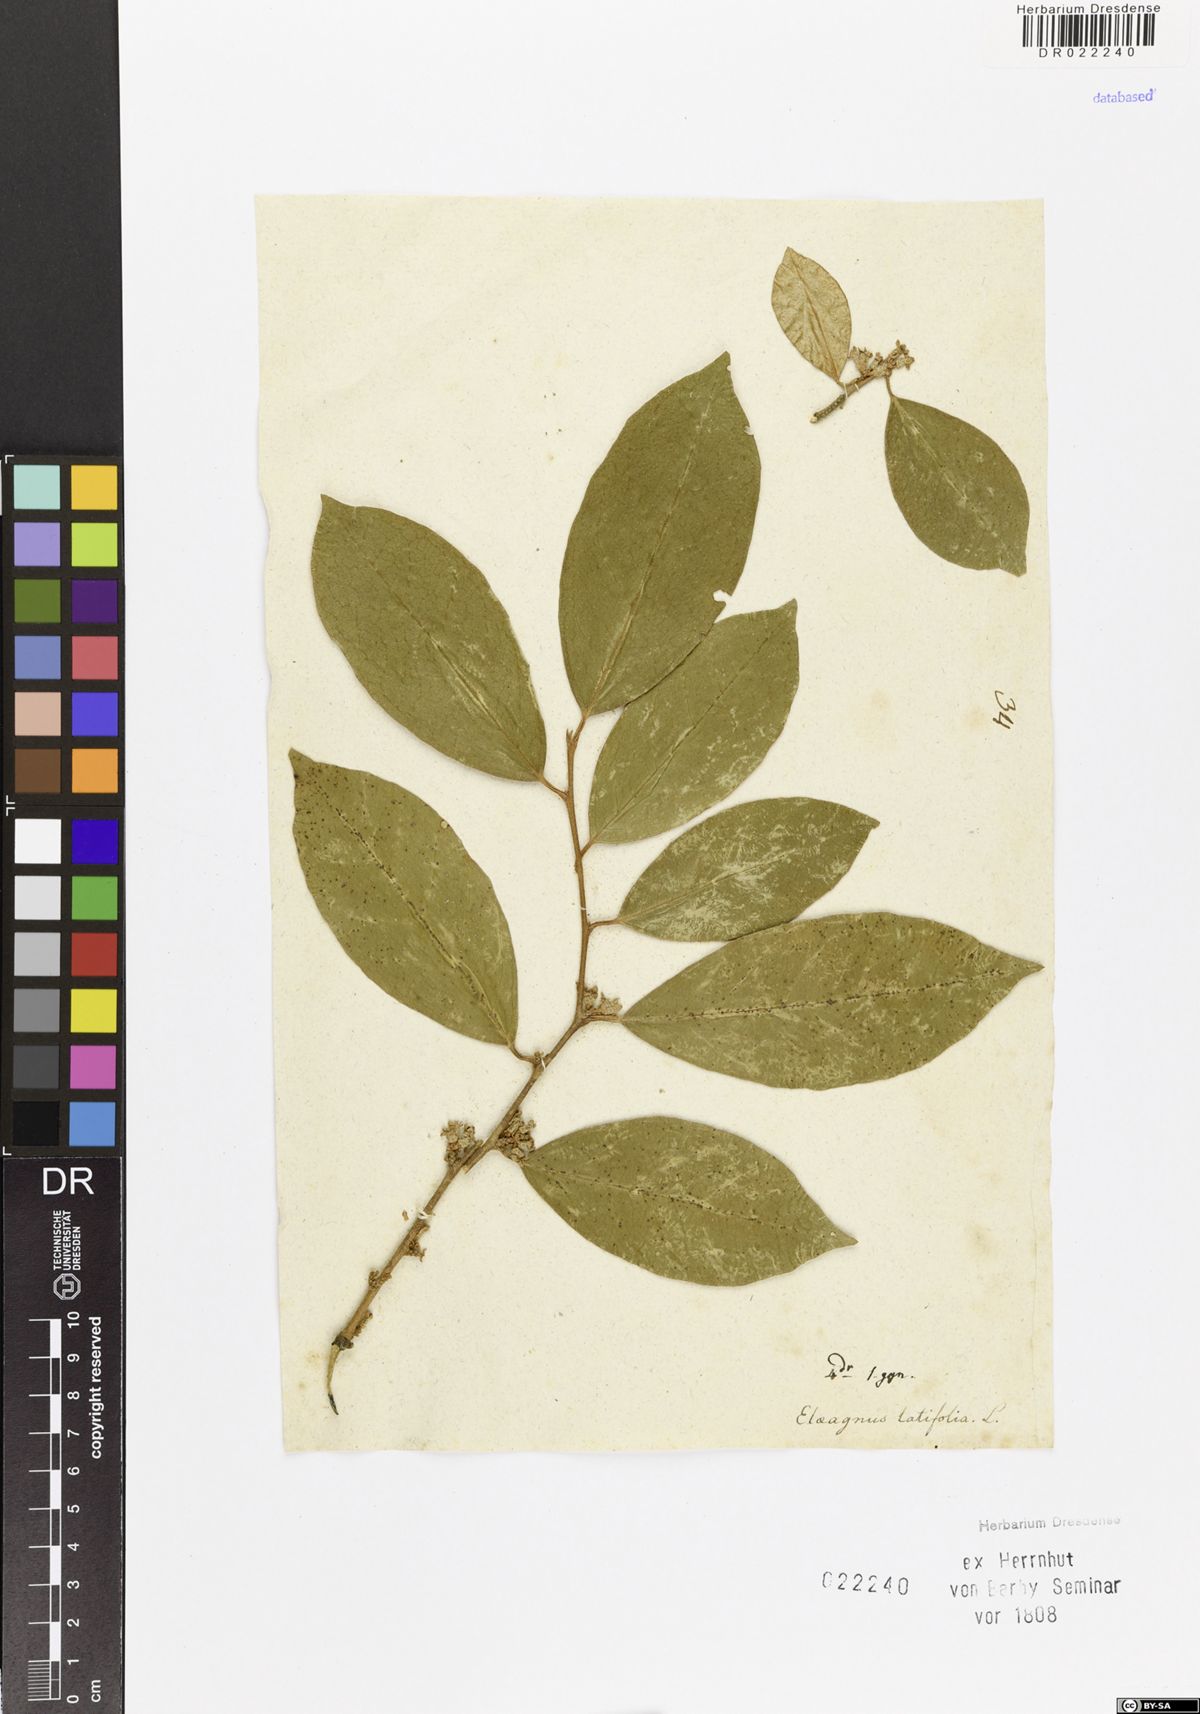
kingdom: Plantae
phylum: Tracheophyta
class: Magnoliopsida
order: Rosales
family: Elaeagnaceae
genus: Elaeagnus
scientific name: Elaeagnus latifolia
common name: Oleaster
